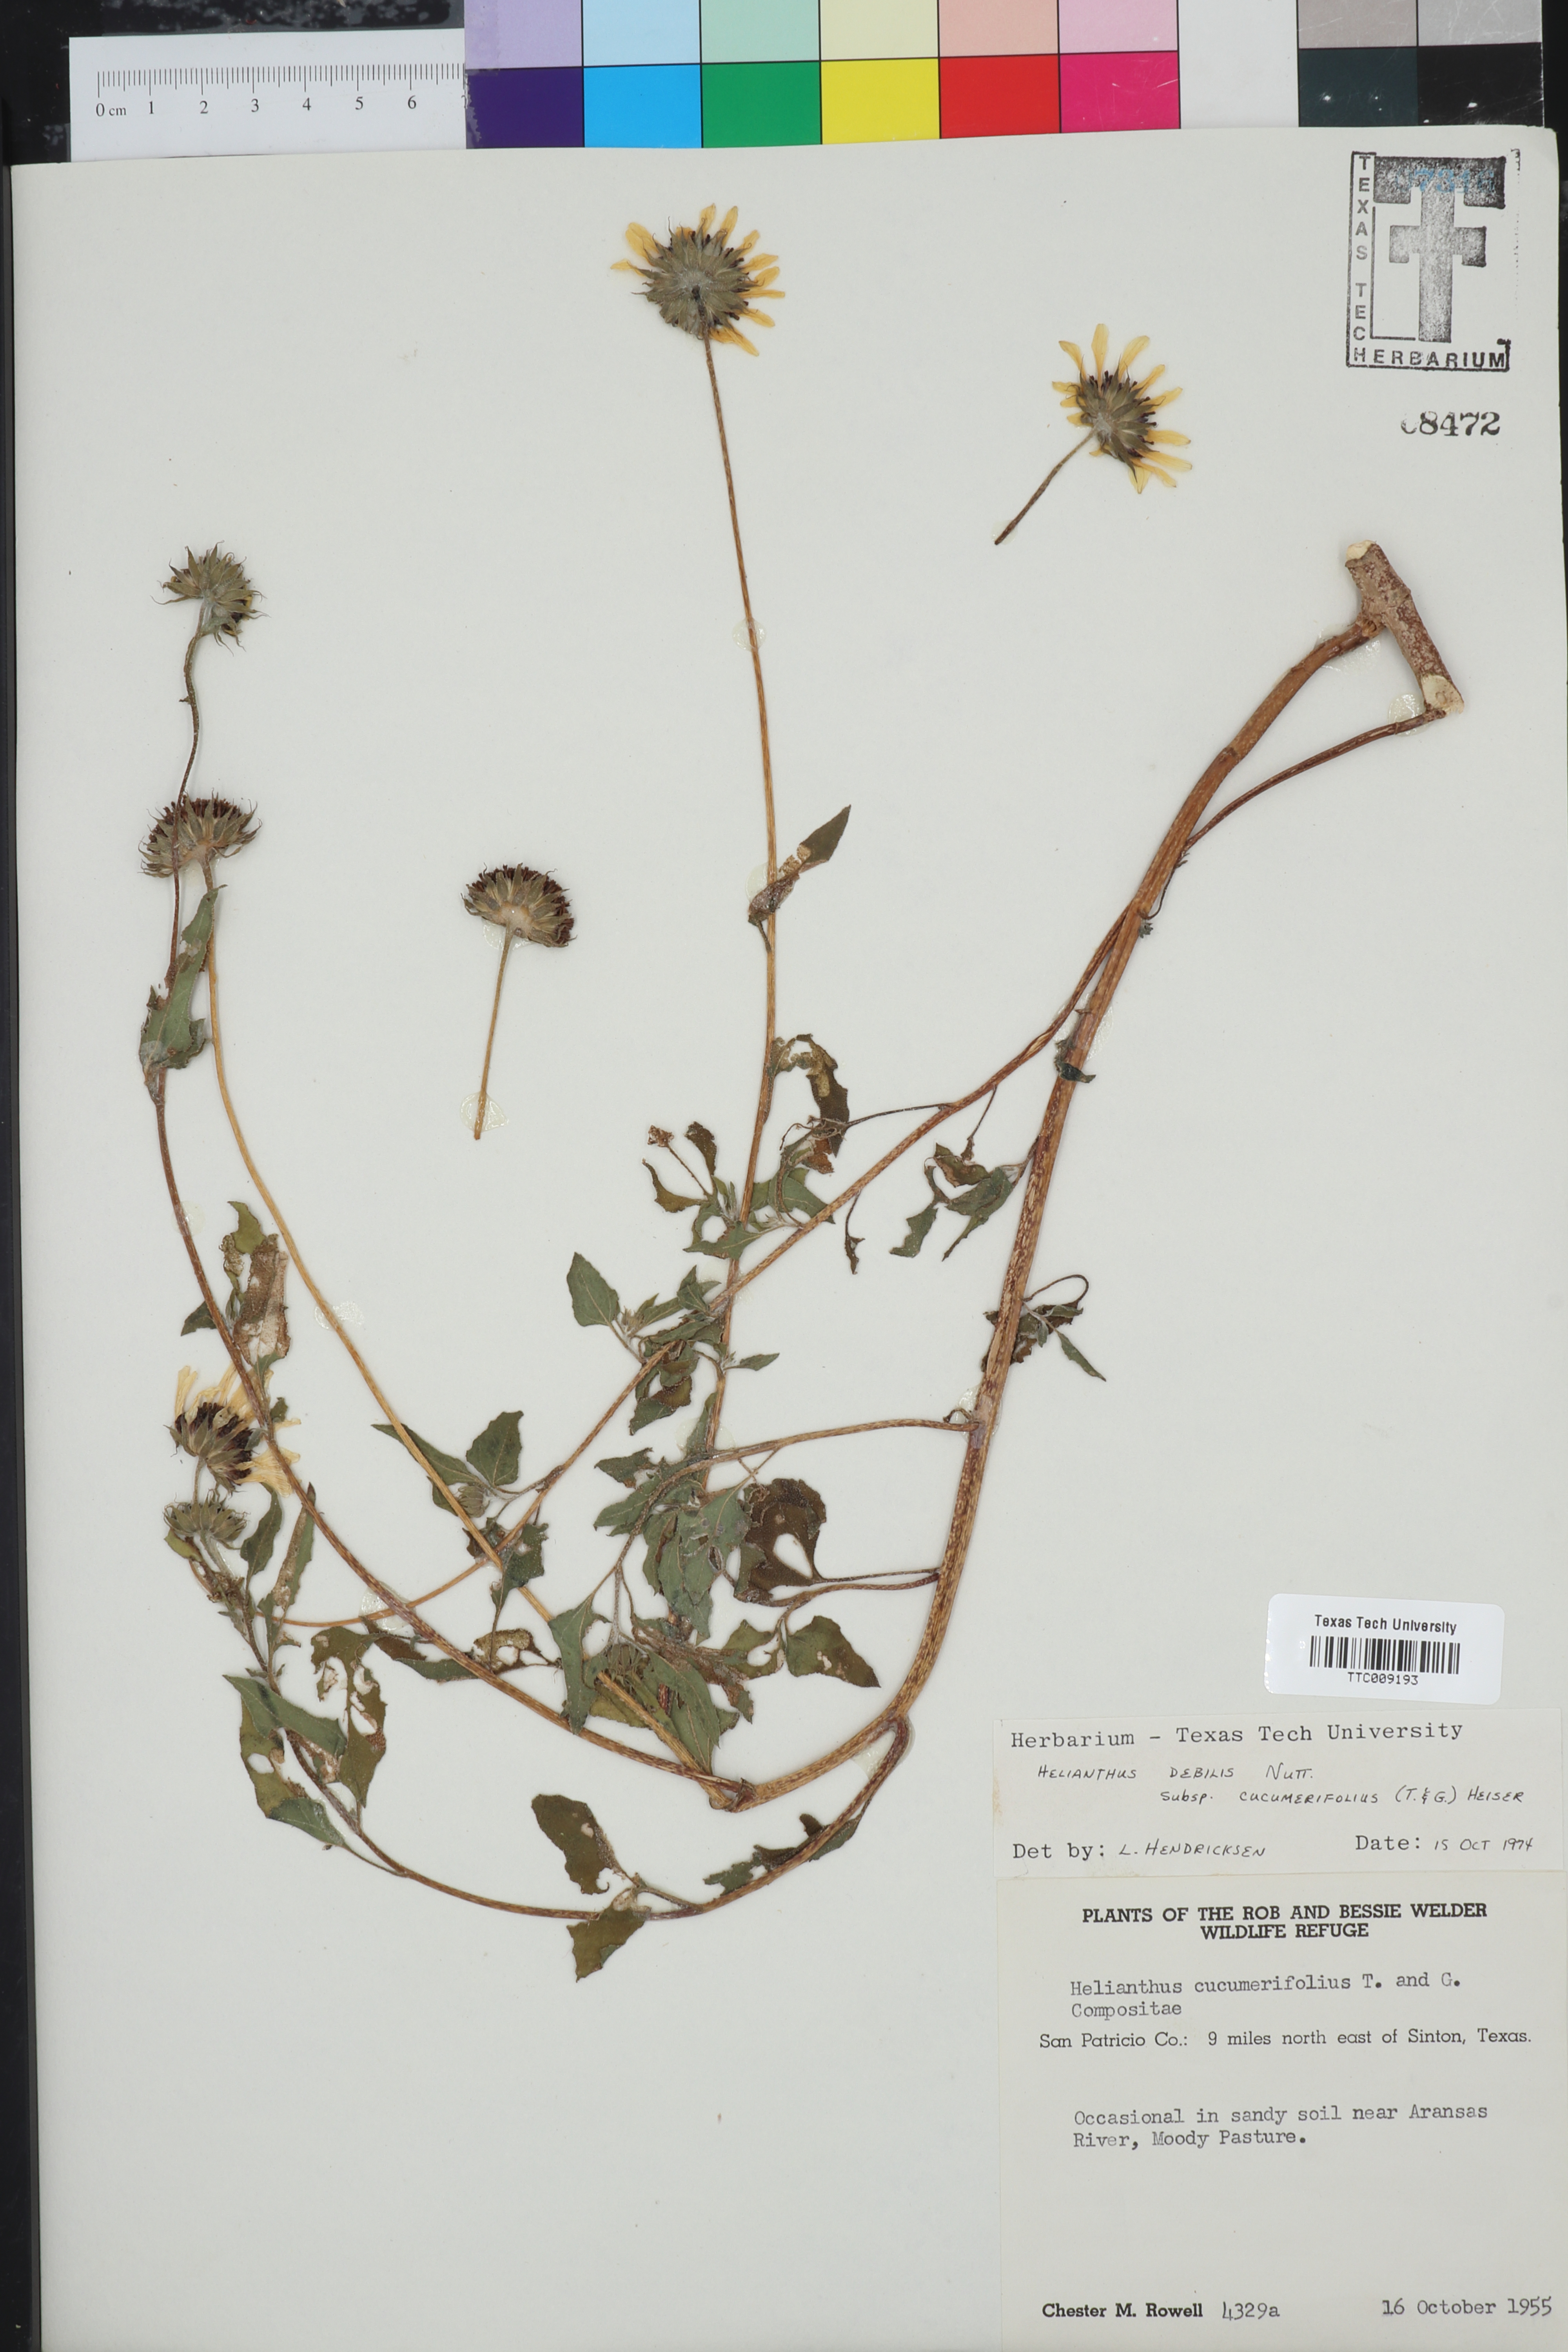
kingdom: Plantae
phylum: Tracheophyta
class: Magnoliopsida
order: Asterales
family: Asteraceae
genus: Helianthus
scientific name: Helianthus debilis
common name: Weak sunflower
